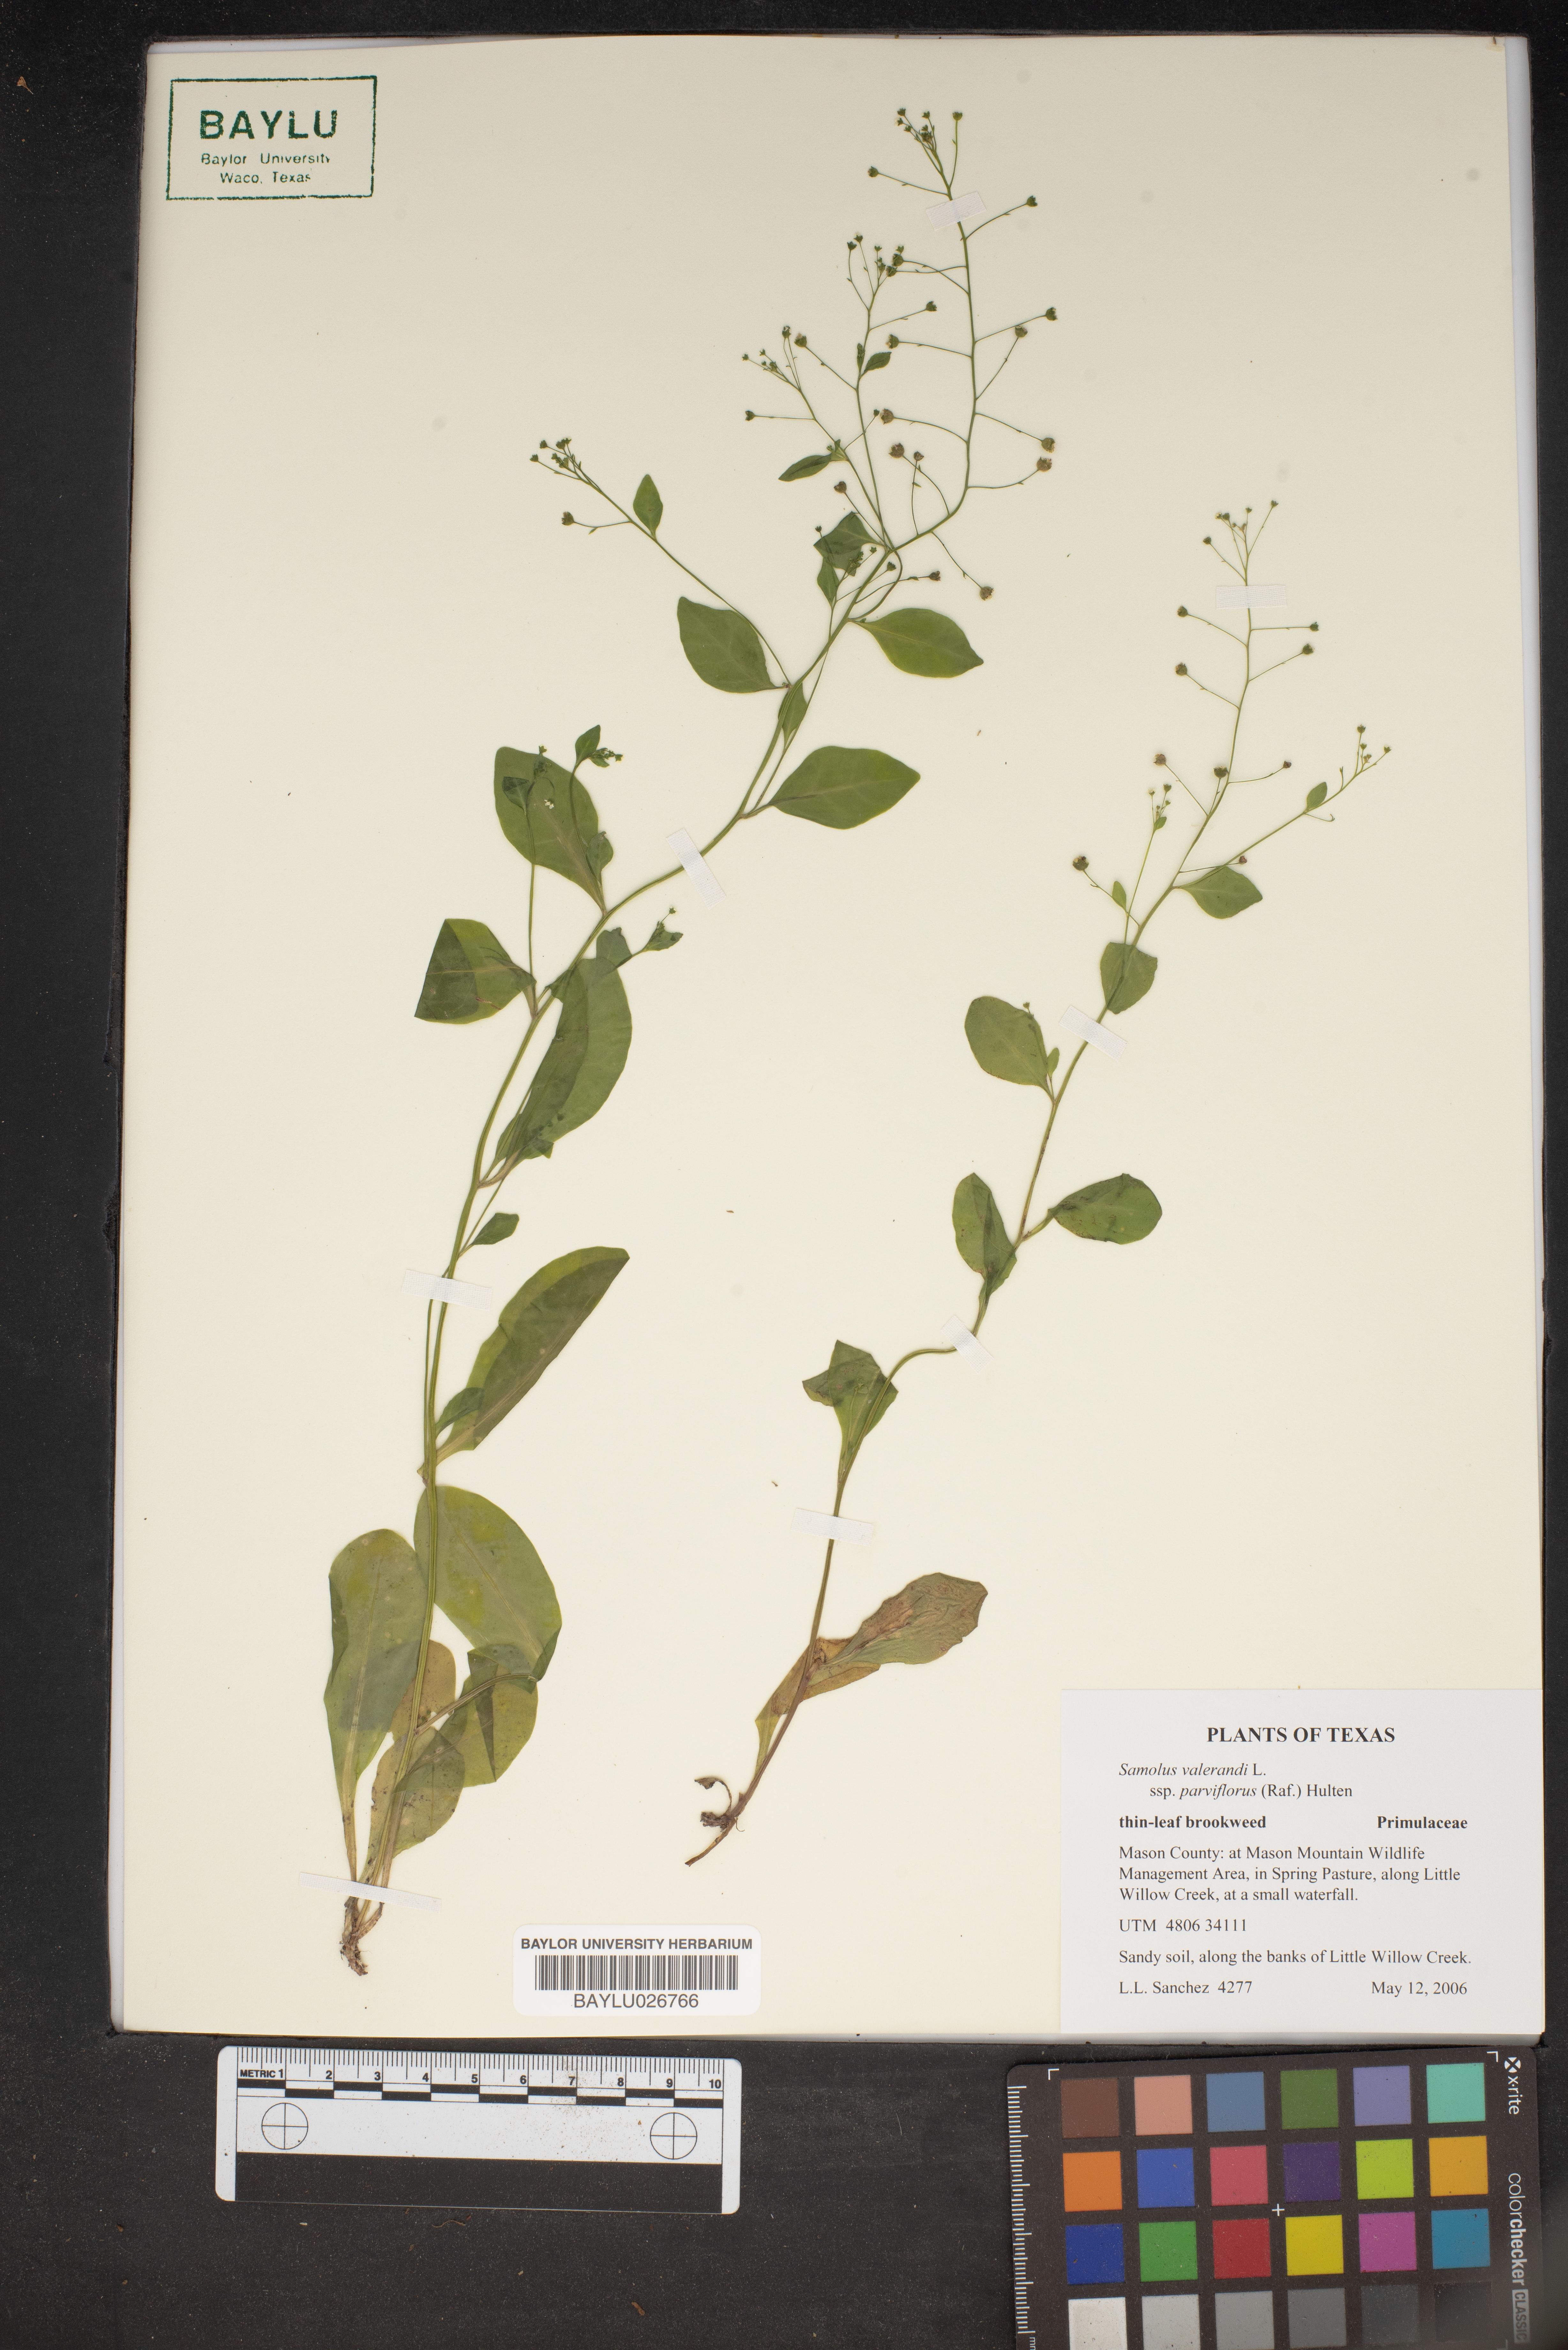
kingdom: Plantae
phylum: Tracheophyta
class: Magnoliopsida
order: Ericales
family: Primulaceae
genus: Samolus
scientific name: Samolus valerandi
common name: Brookweed
